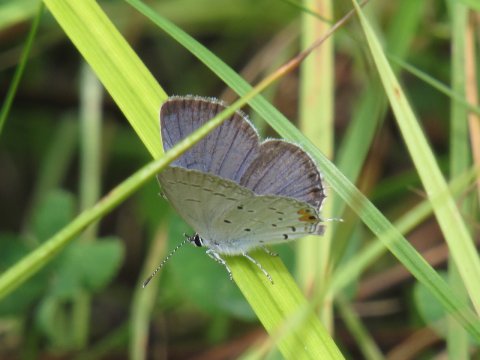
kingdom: Animalia
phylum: Arthropoda
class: Insecta
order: Lepidoptera
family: Lycaenidae
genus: Elkalyce
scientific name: Elkalyce comyntas
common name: Eastern Tailed-Blue
